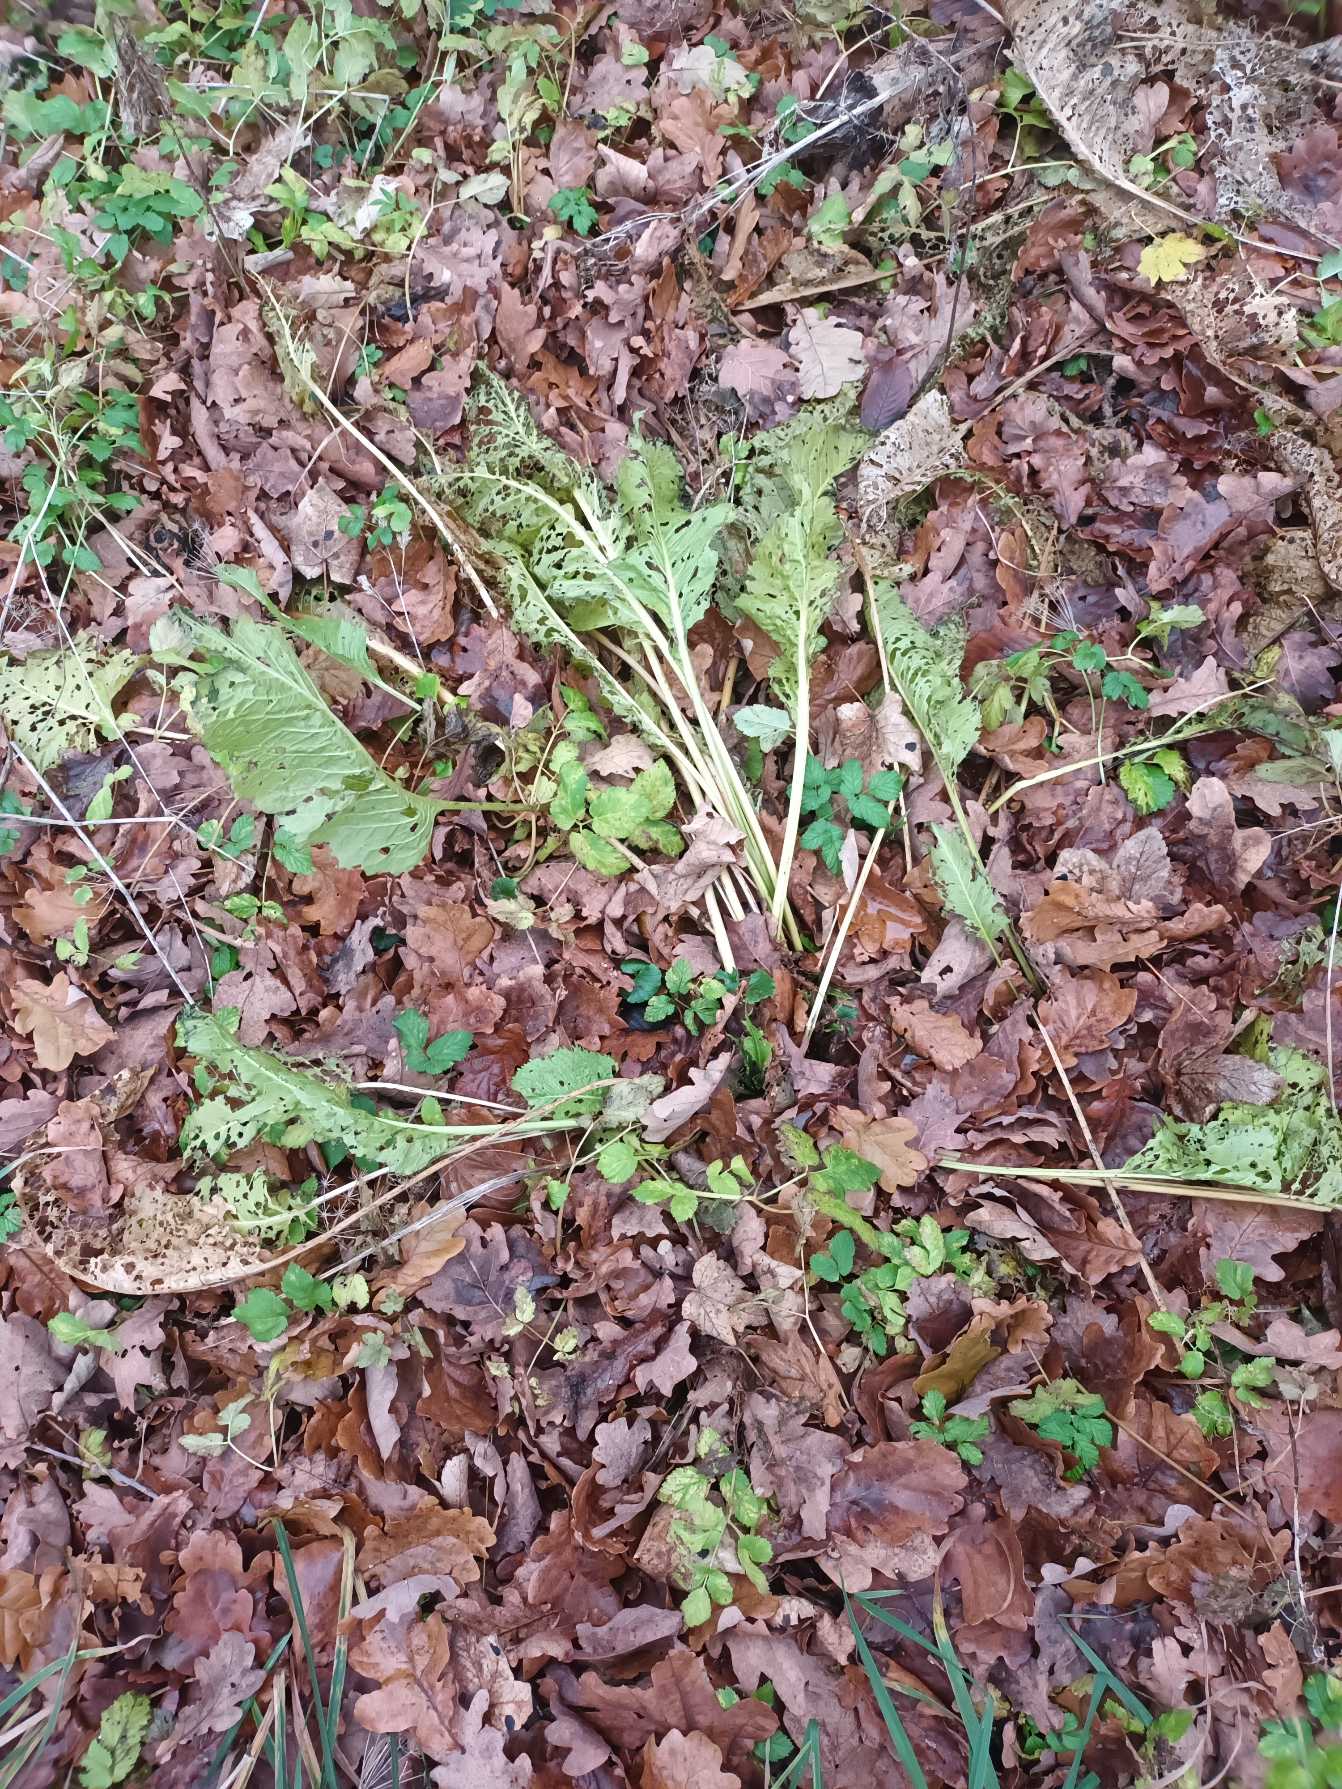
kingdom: Plantae
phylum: Tracheophyta
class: Magnoliopsida
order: Brassicales
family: Brassicaceae
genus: Armoracia
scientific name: Armoracia rusticana
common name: Peberrod
